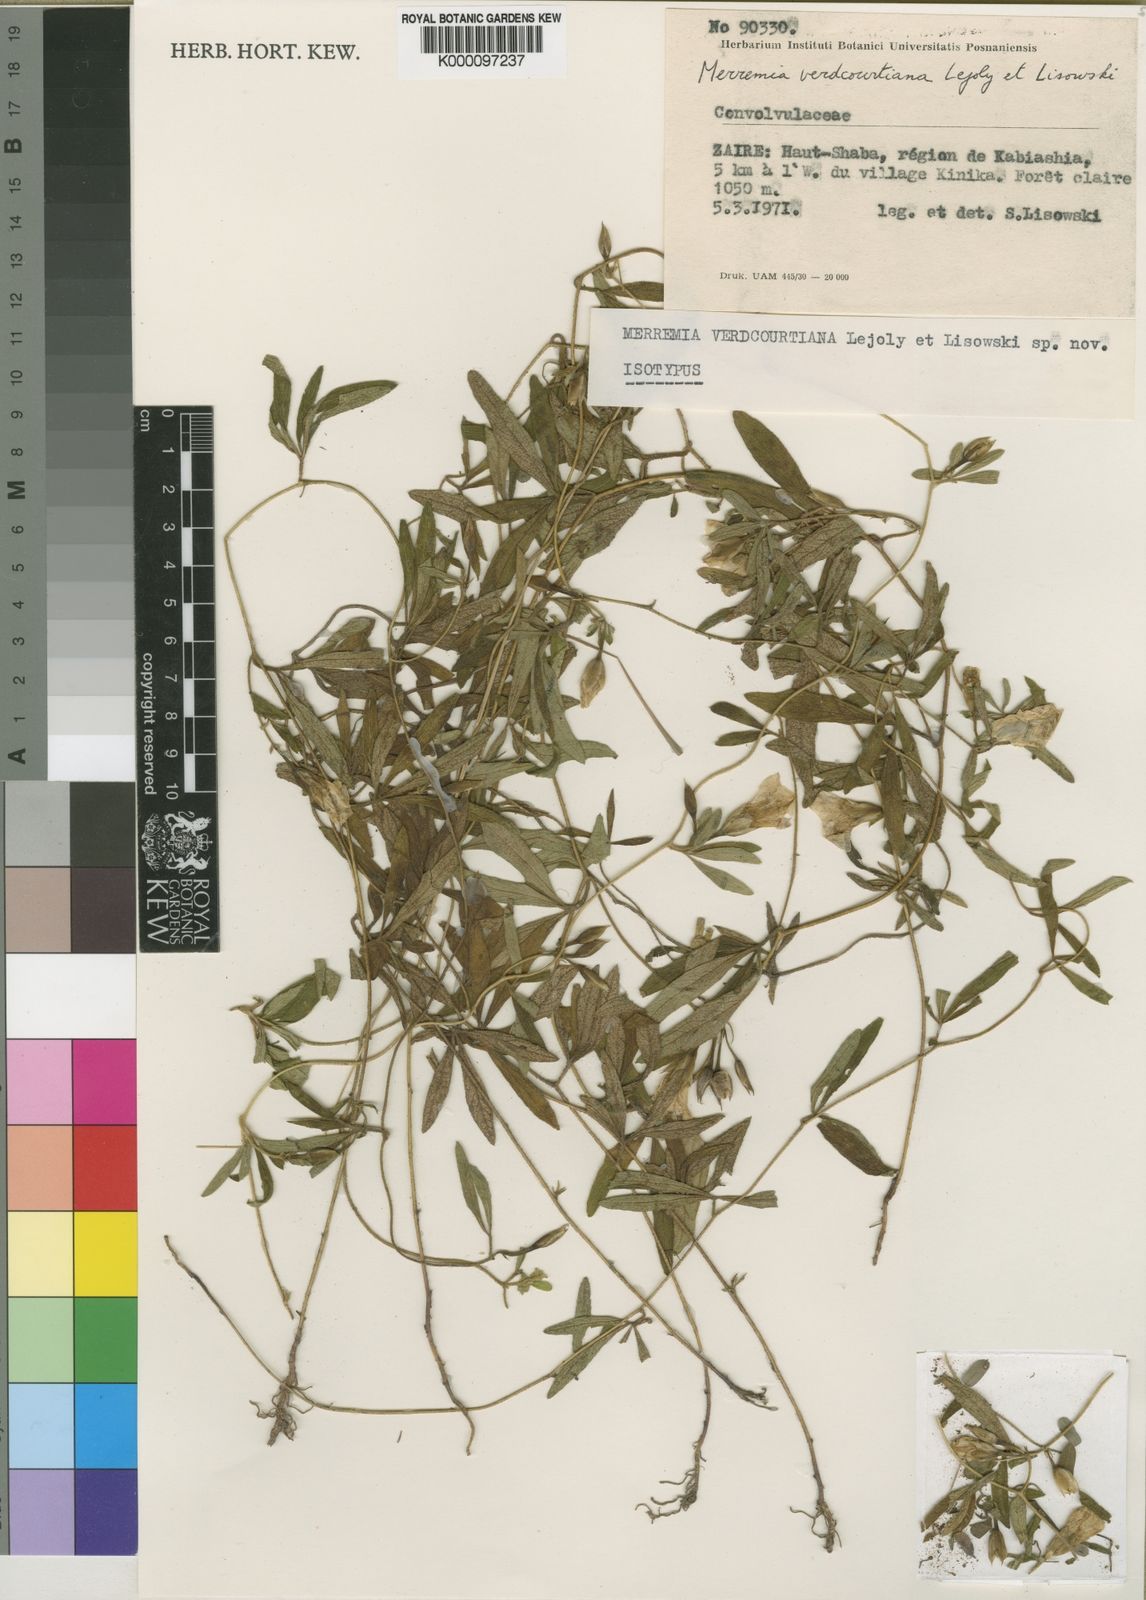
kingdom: Plantae
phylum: Tracheophyta
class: Magnoliopsida
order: Solanales
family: Convolvulaceae
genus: Distimake
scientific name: Distimake verdcourtianus
